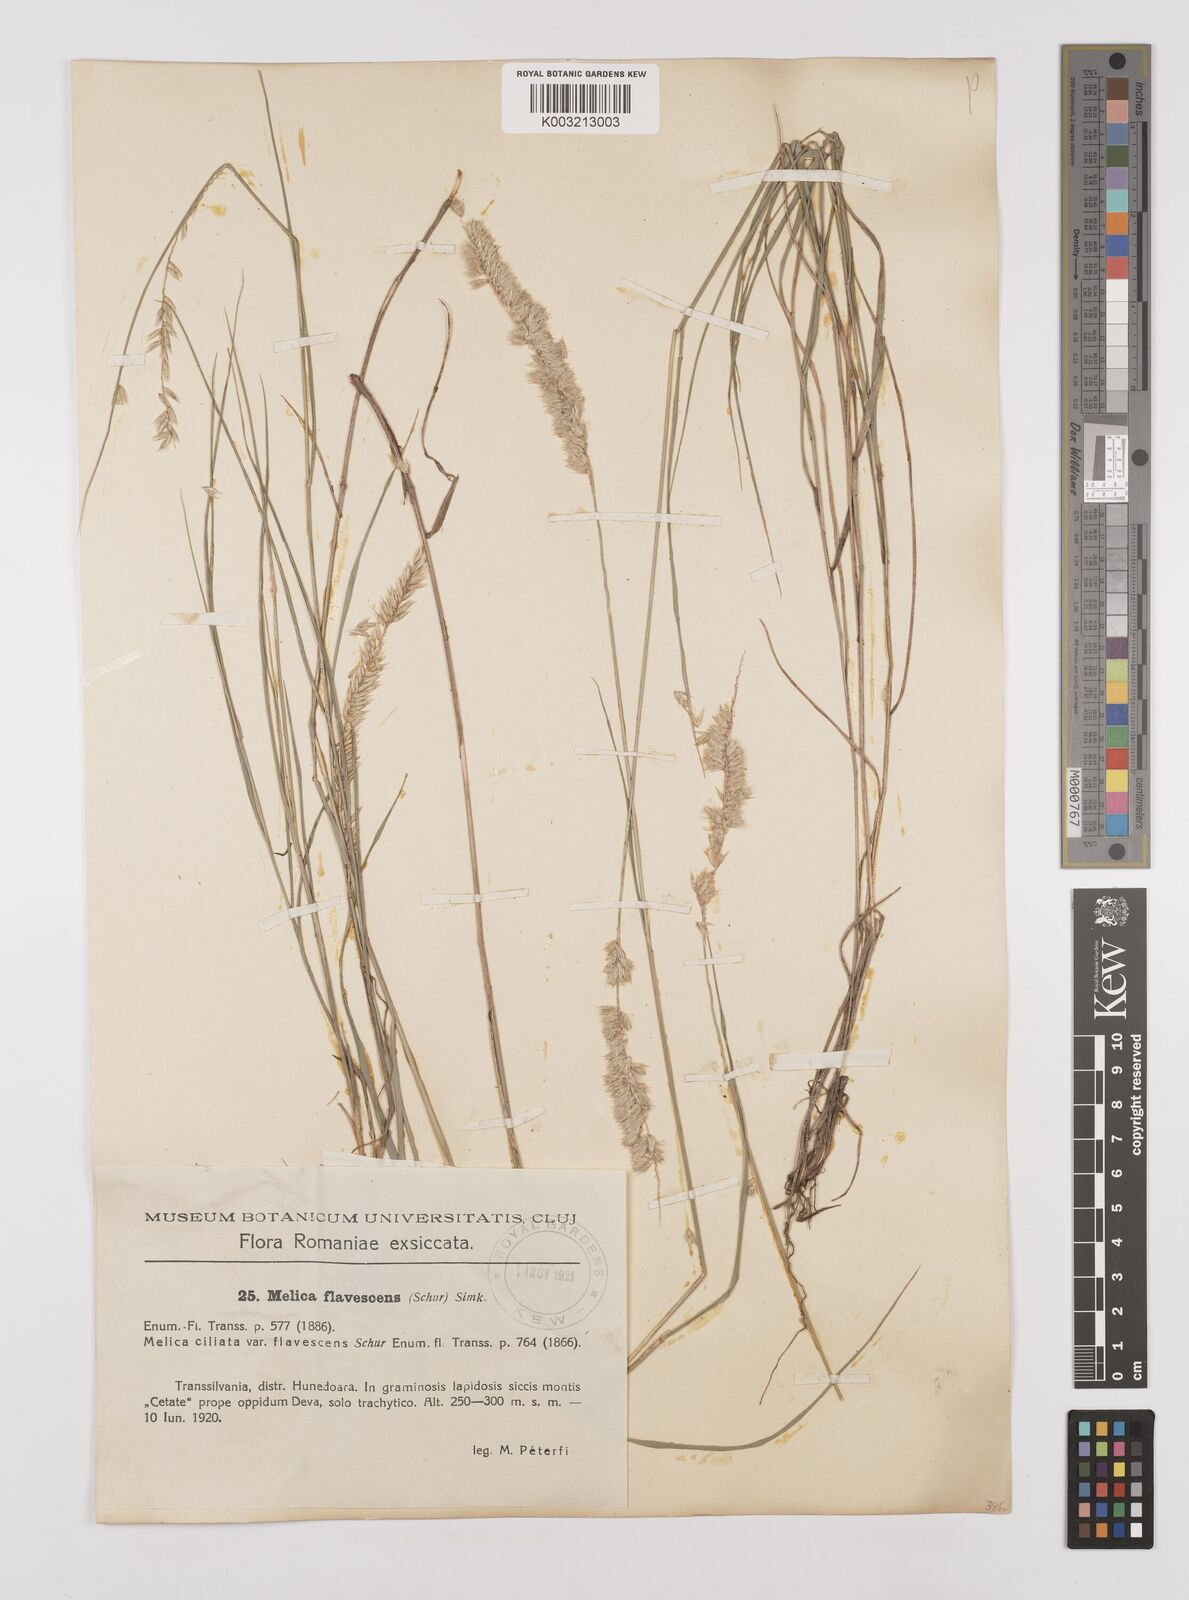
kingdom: Plantae
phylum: Tracheophyta
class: Liliopsida
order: Poales
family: Poaceae
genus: Melica
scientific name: Melica transsilvanica
